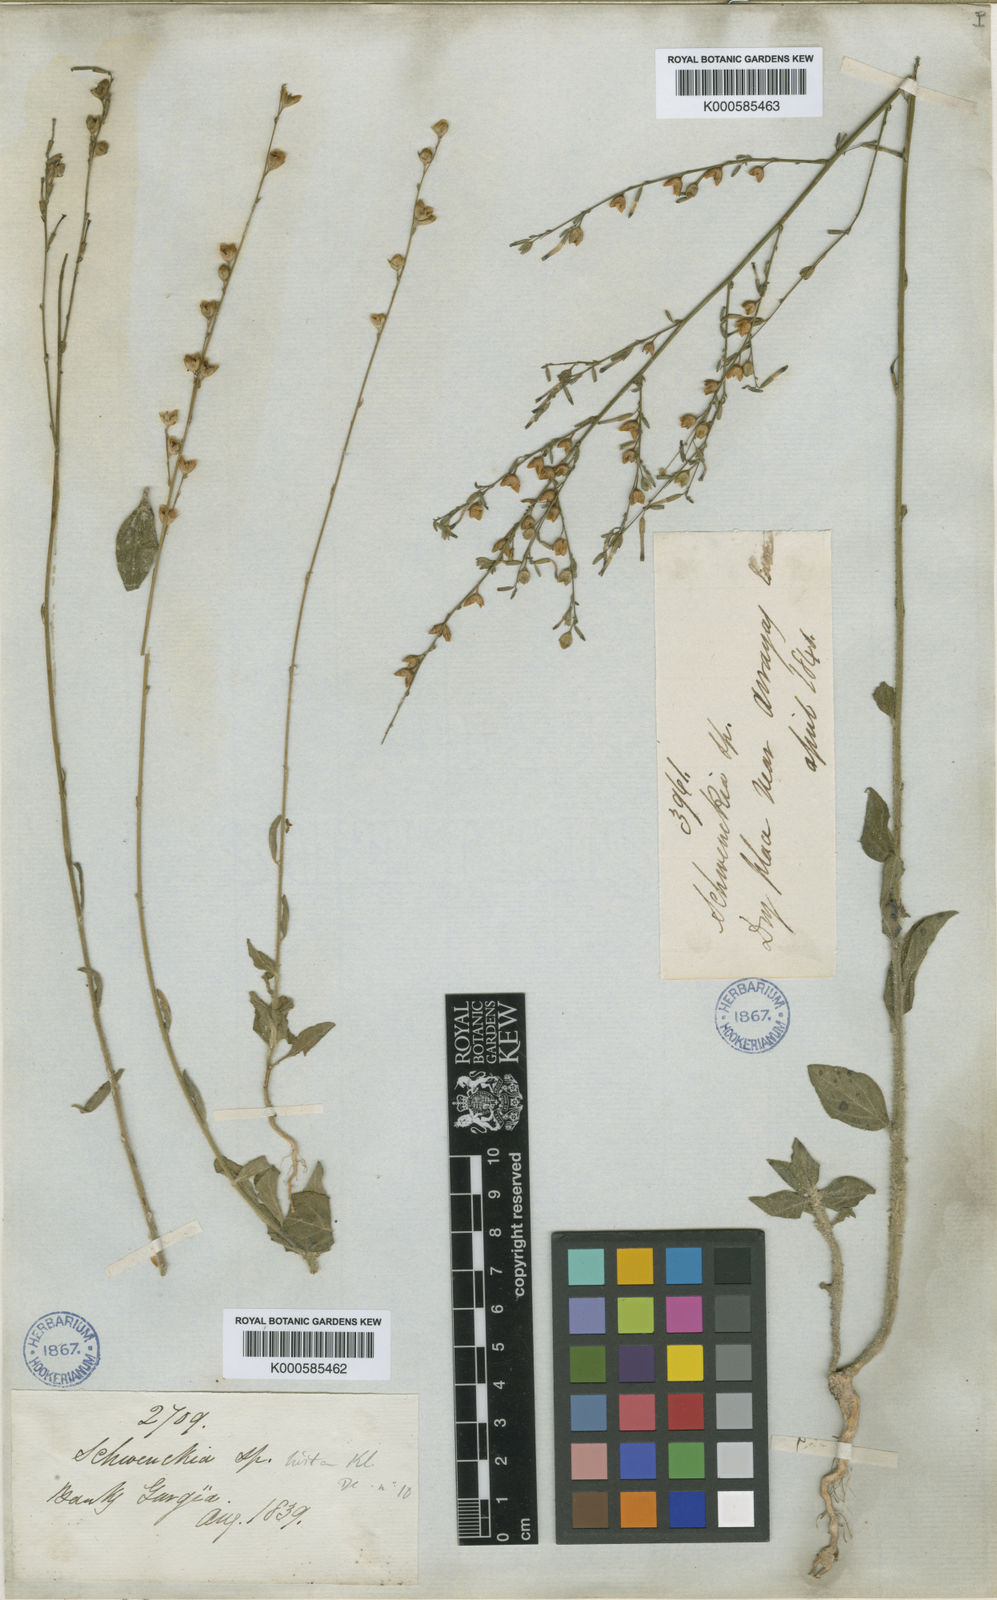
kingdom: Plantae
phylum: Tracheophyta
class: Magnoliopsida
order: Solanales
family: Solanaceae
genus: Schwenckia
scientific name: Schwenckia americana
